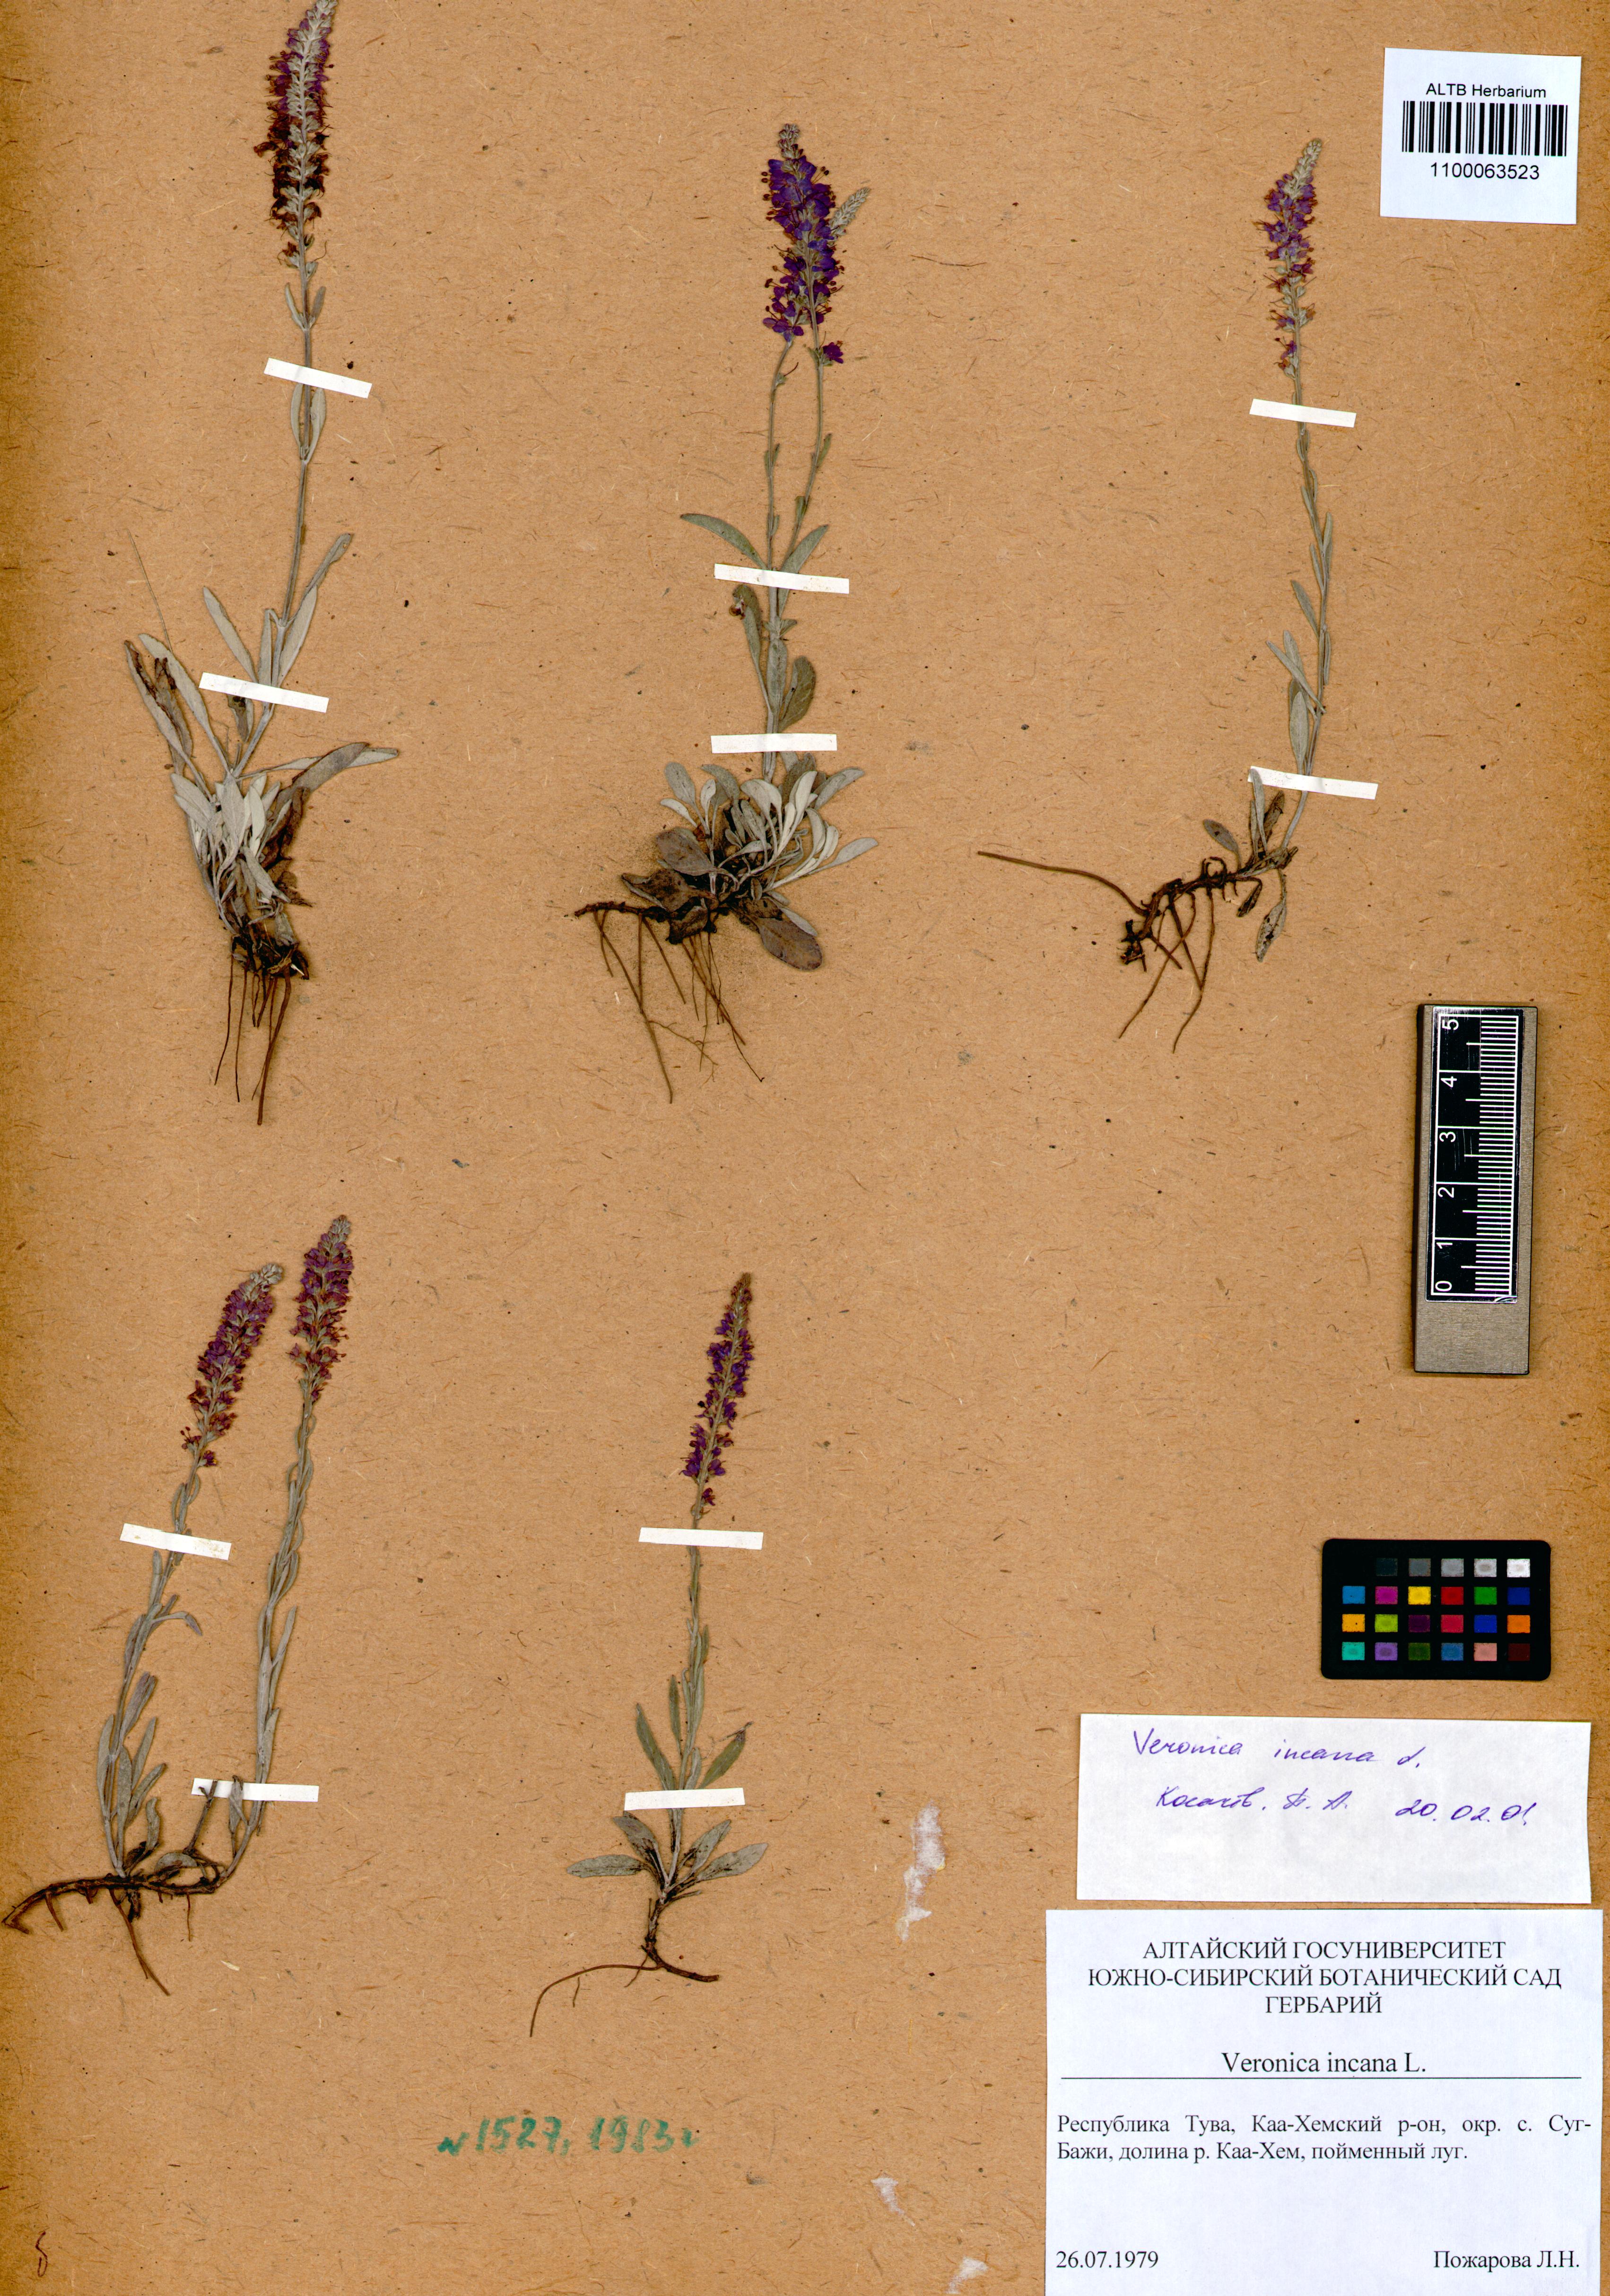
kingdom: Plantae
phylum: Tracheophyta
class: Magnoliopsida
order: Lamiales
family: Plantaginaceae
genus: Veronica
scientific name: Veronica incana
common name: Silver speedwell
